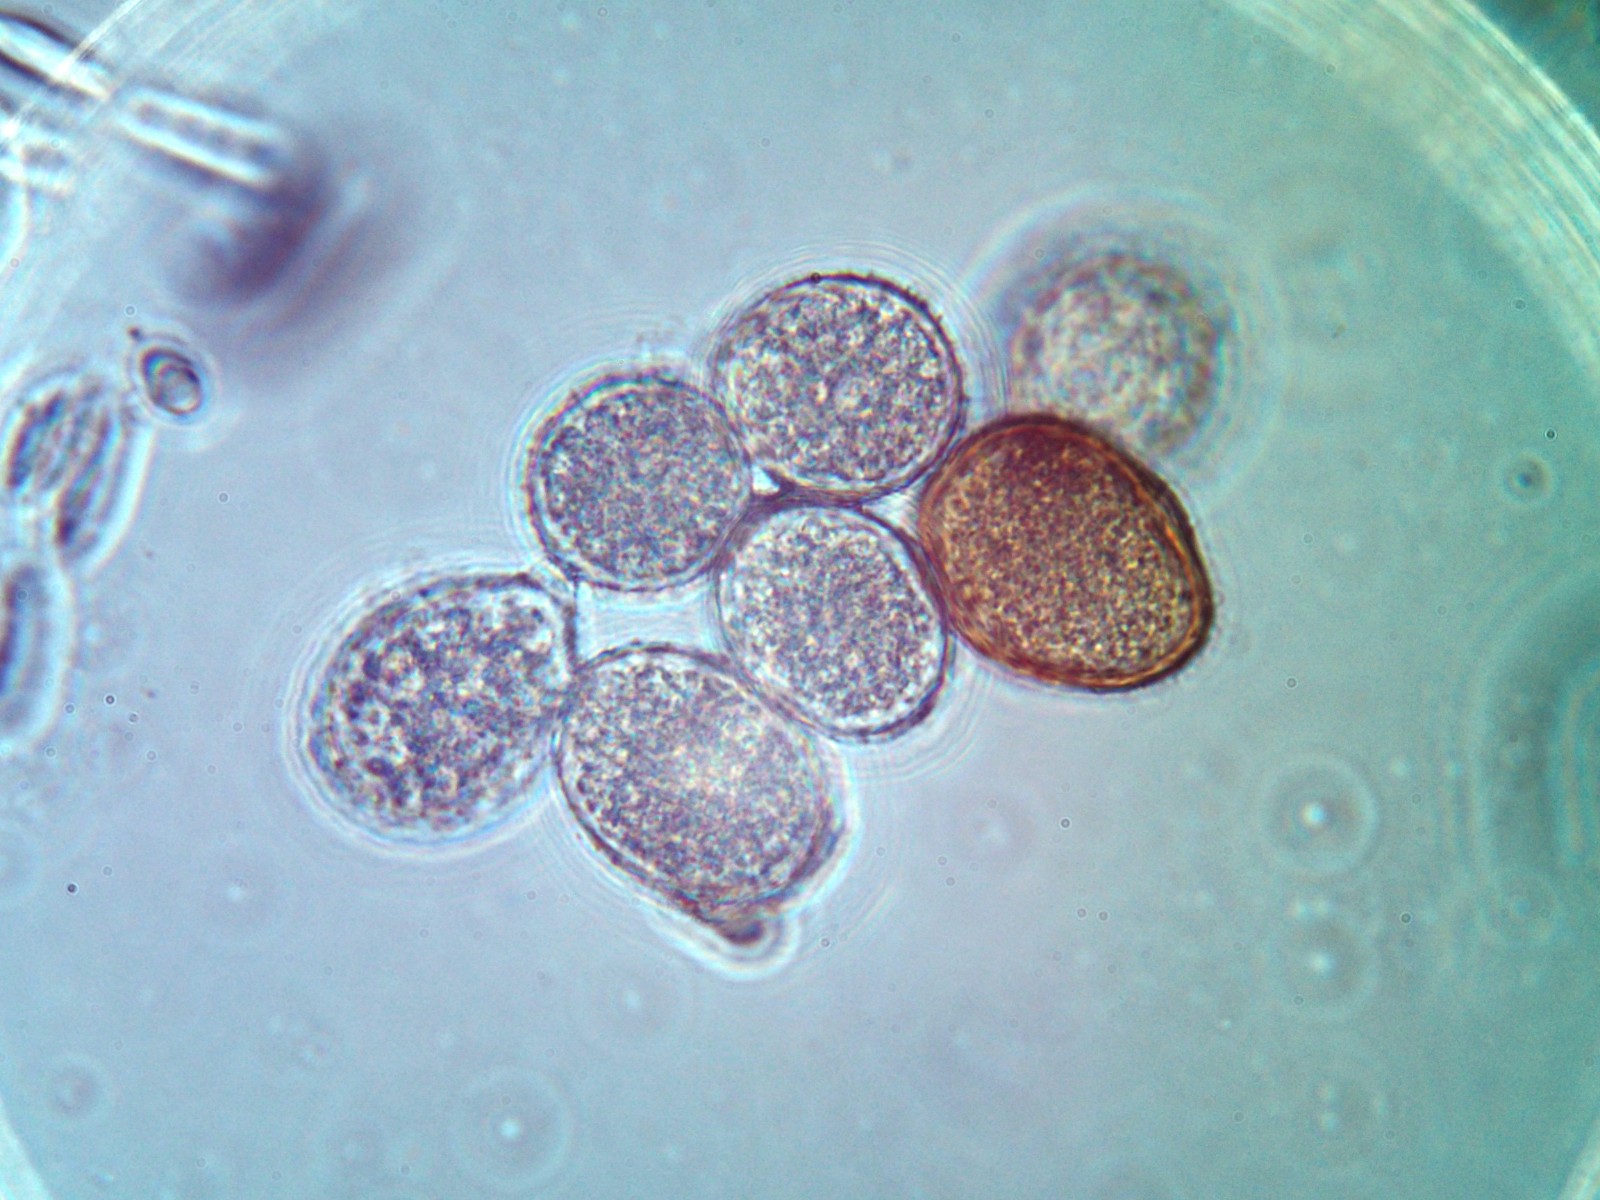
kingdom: Fungi
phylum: Basidiomycota
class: Pucciniomycetes
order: Pucciniales
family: Pucciniaceae
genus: Puccinia
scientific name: Puccinia caricina
